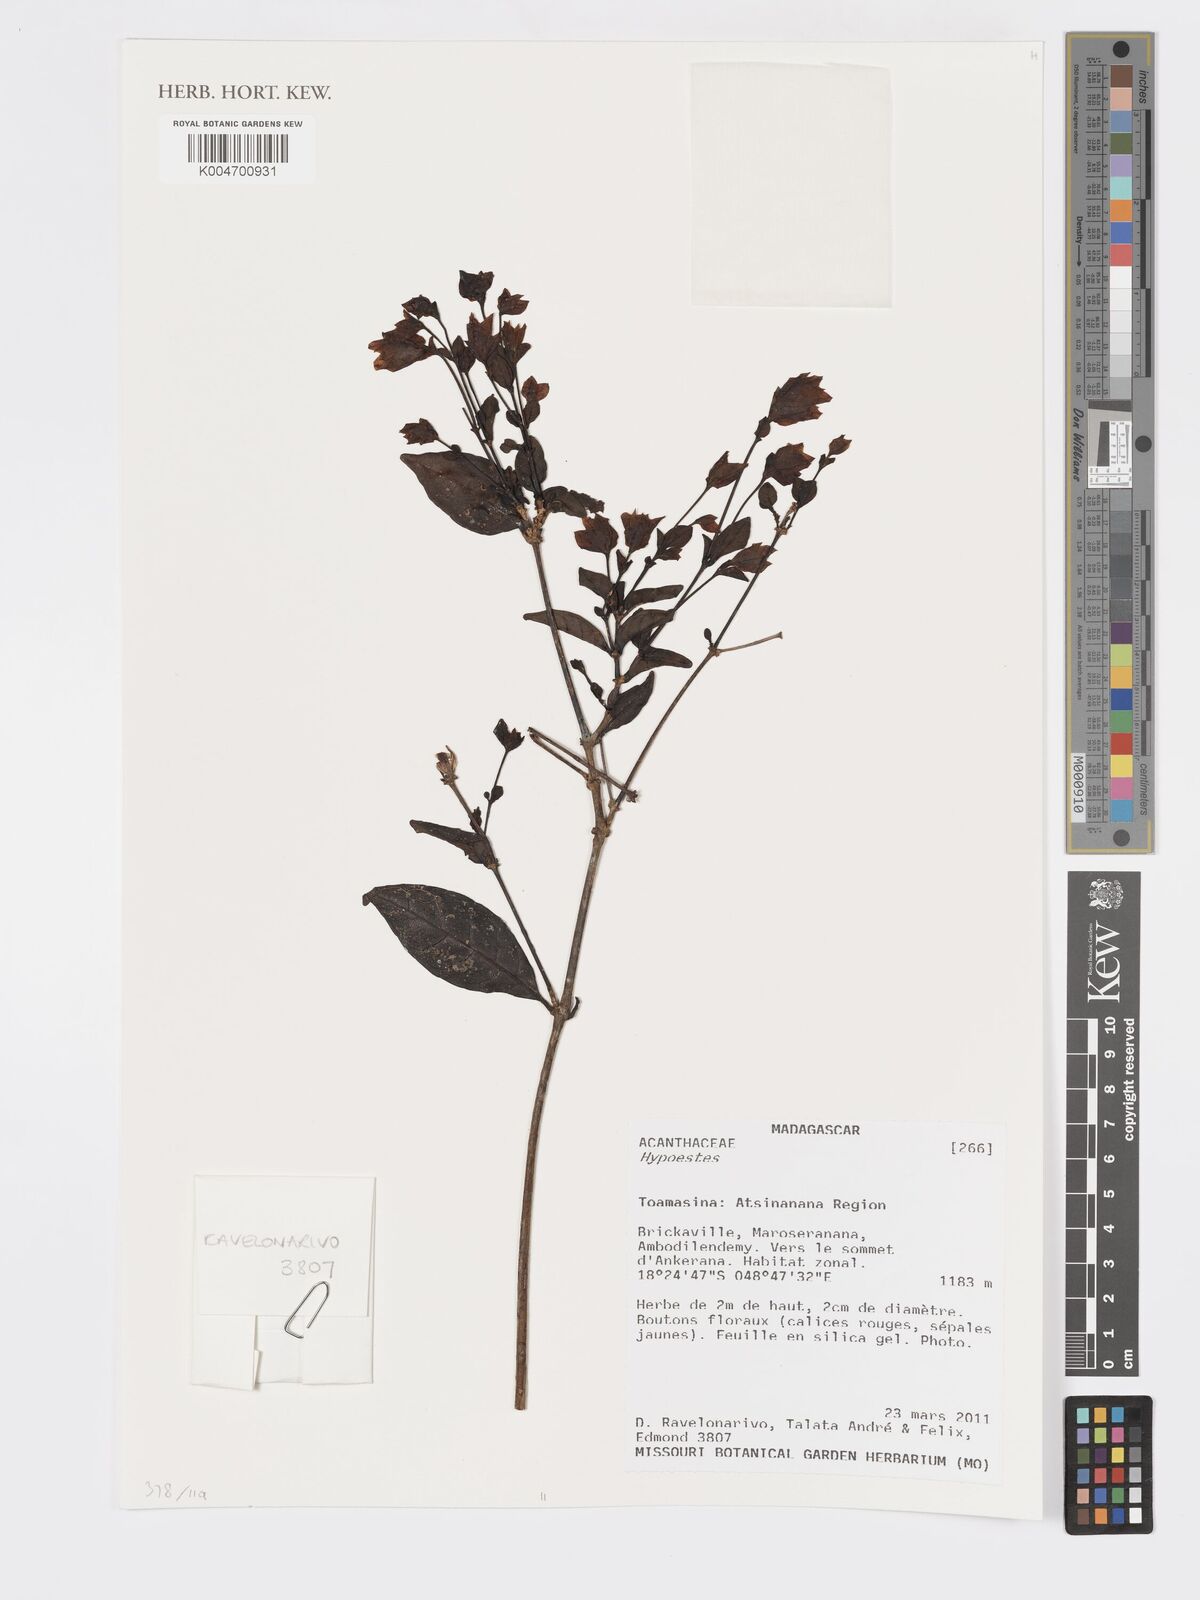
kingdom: Plantae
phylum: Tracheophyta
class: Magnoliopsida
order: Lamiales
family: Acanthaceae
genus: Hypoestes
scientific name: Hypoestes
